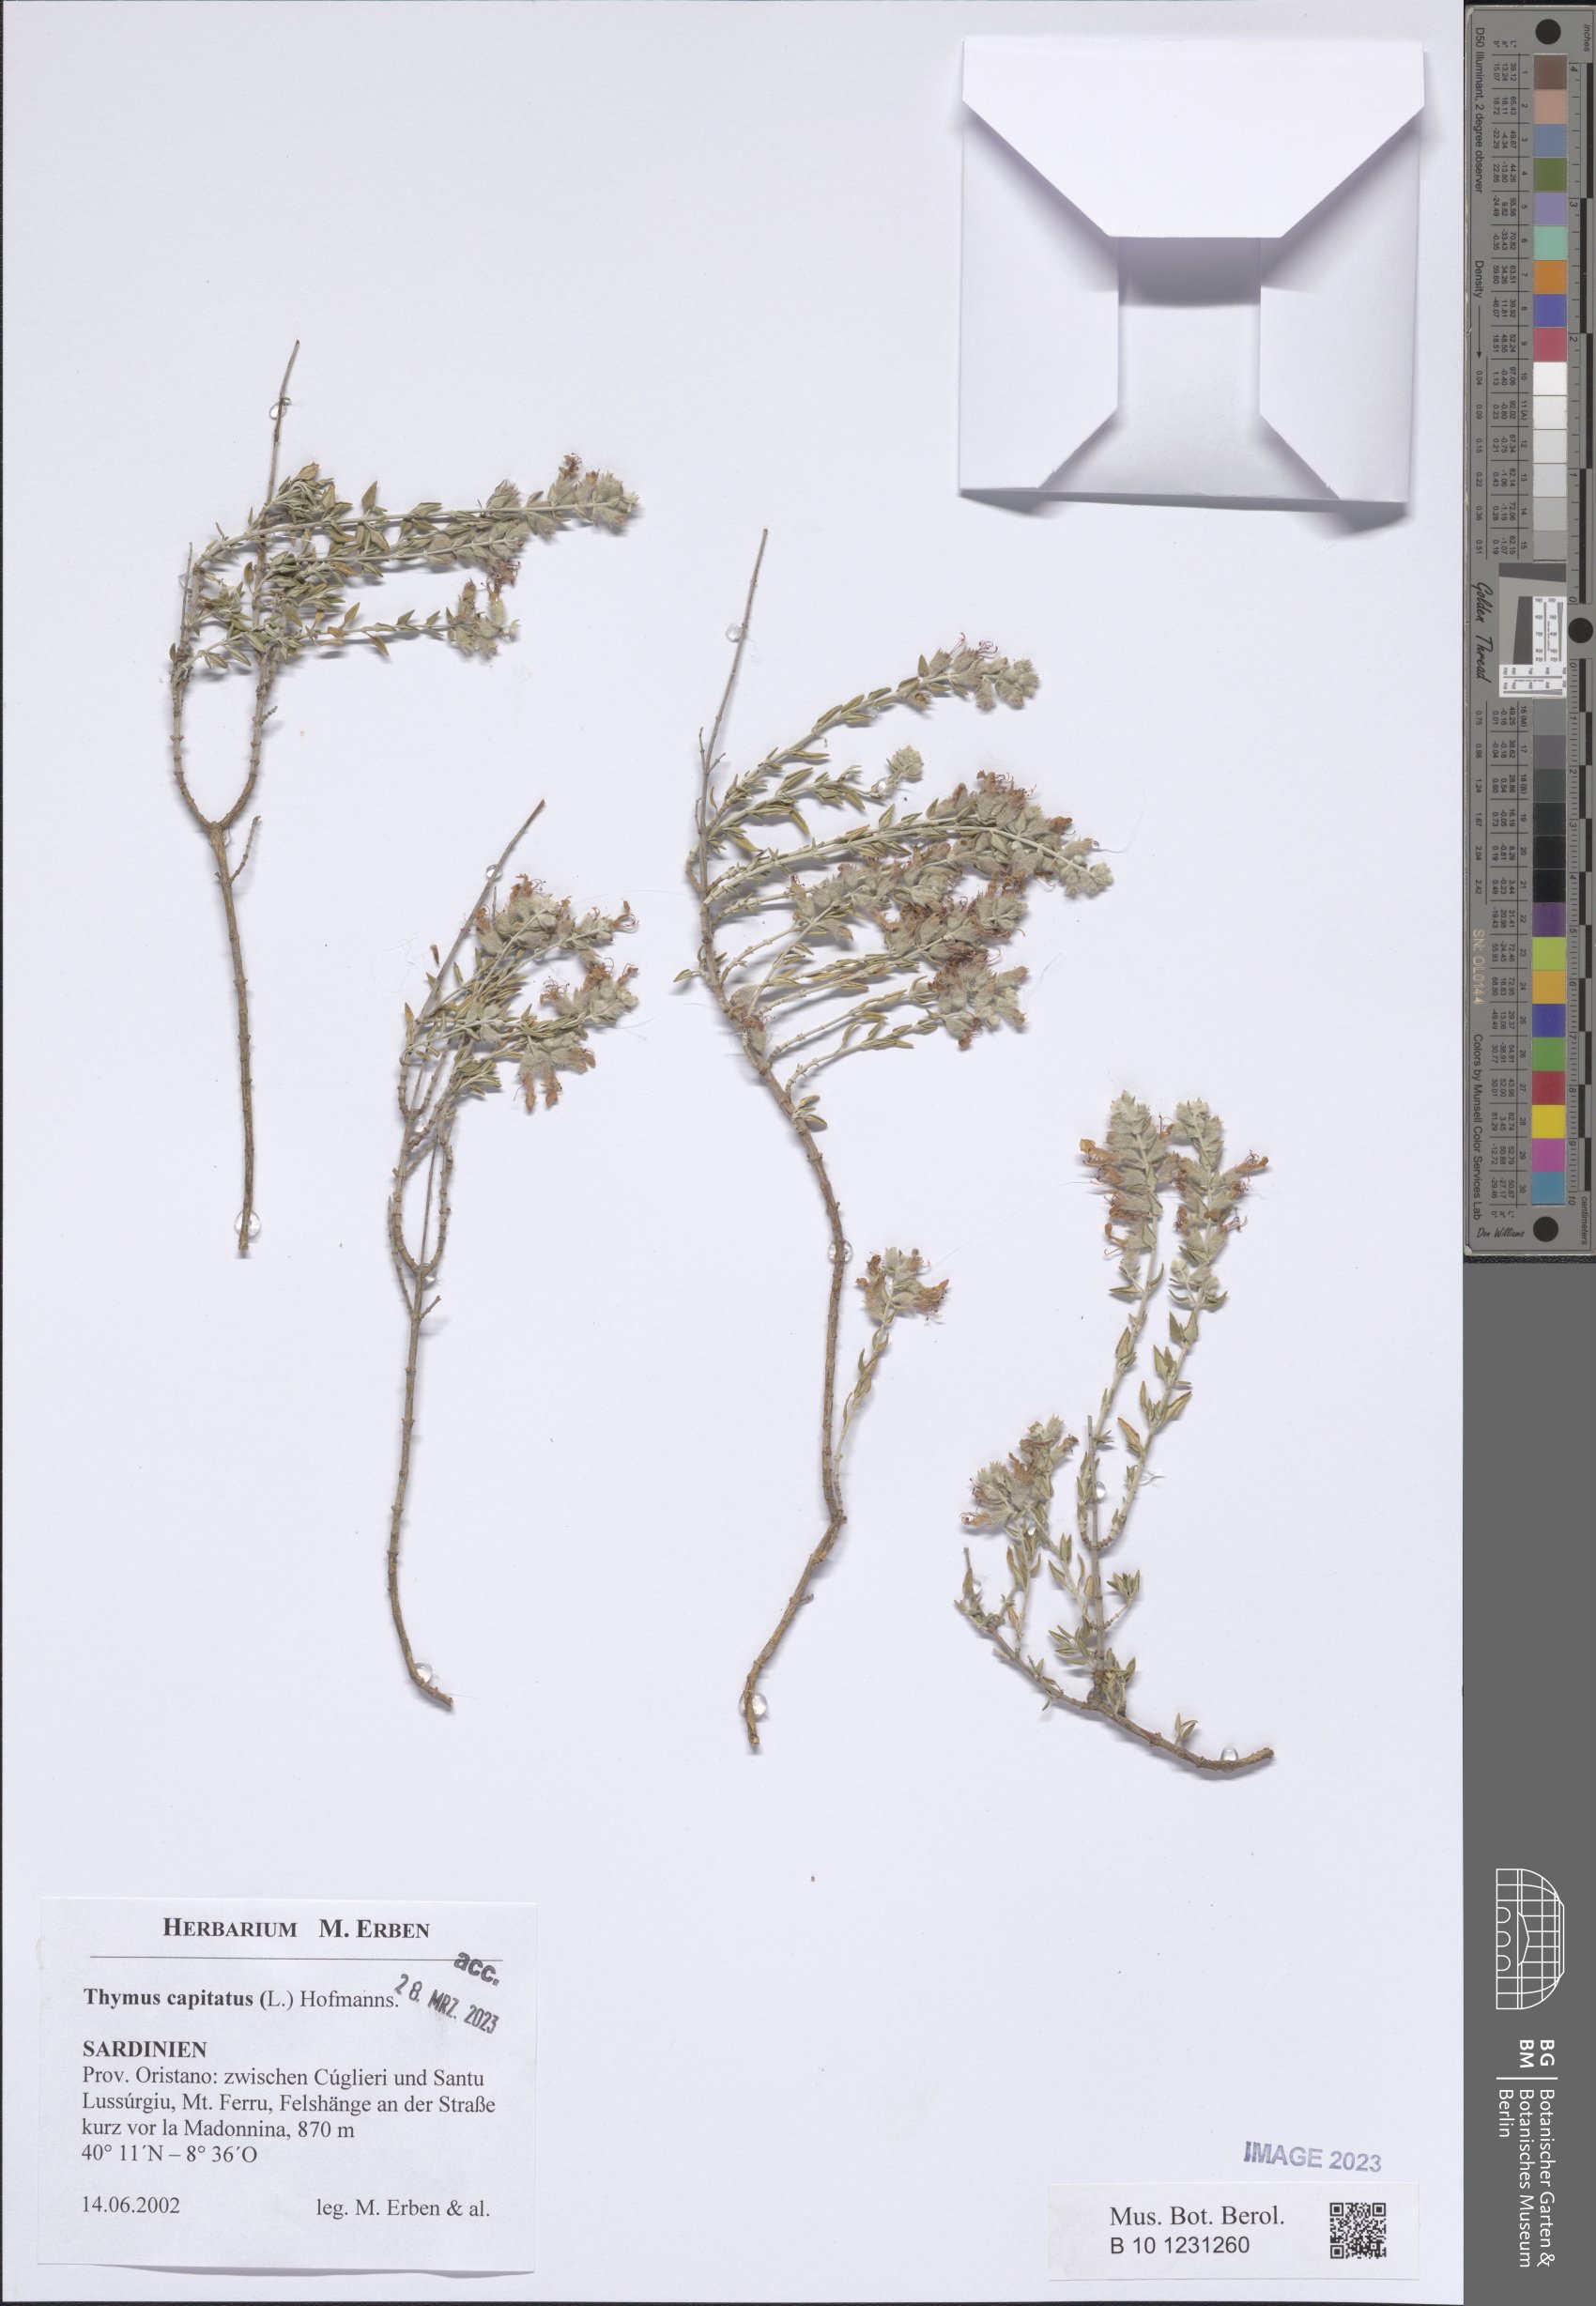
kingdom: Plantae
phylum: Tracheophyta
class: Magnoliopsida
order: Lamiales
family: Lamiaceae
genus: Thymbra
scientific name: Thymbra capitata
